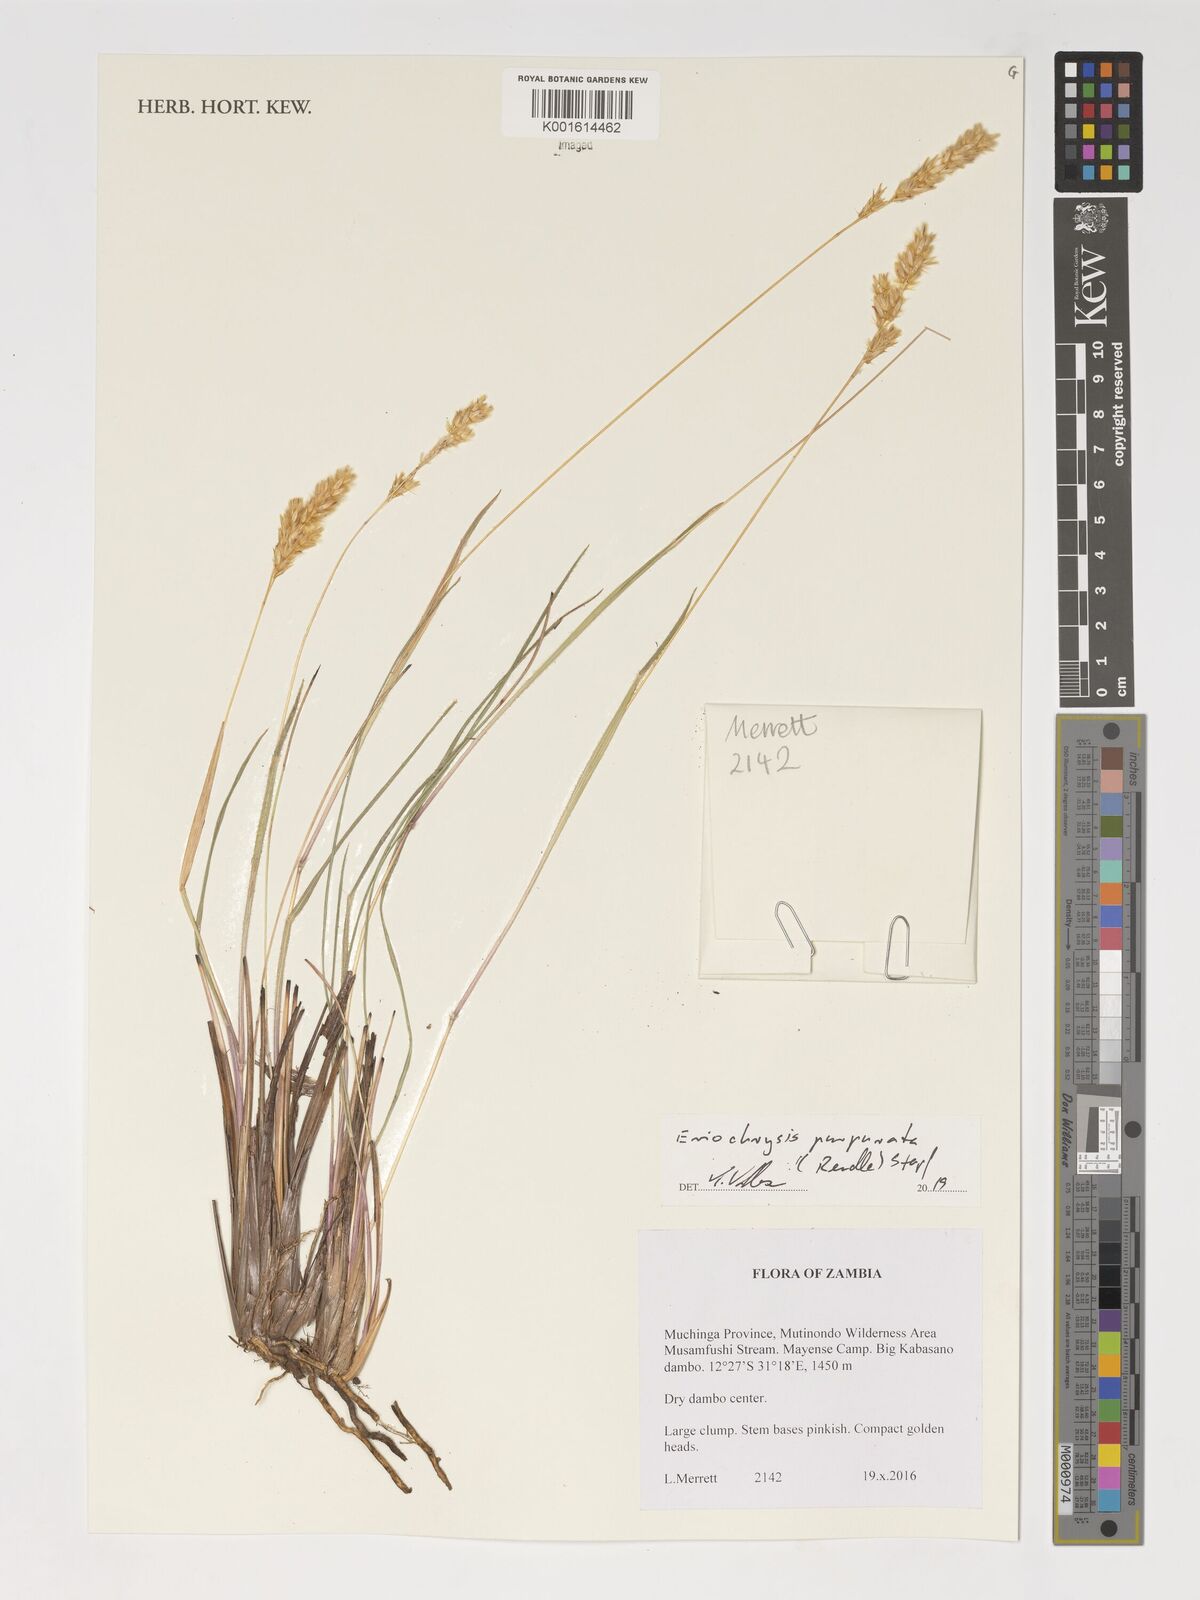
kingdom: Plantae
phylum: Tracheophyta
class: Liliopsida
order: Poales
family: Poaceae
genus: Eriochrysis
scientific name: Eriochrysis purpurata
